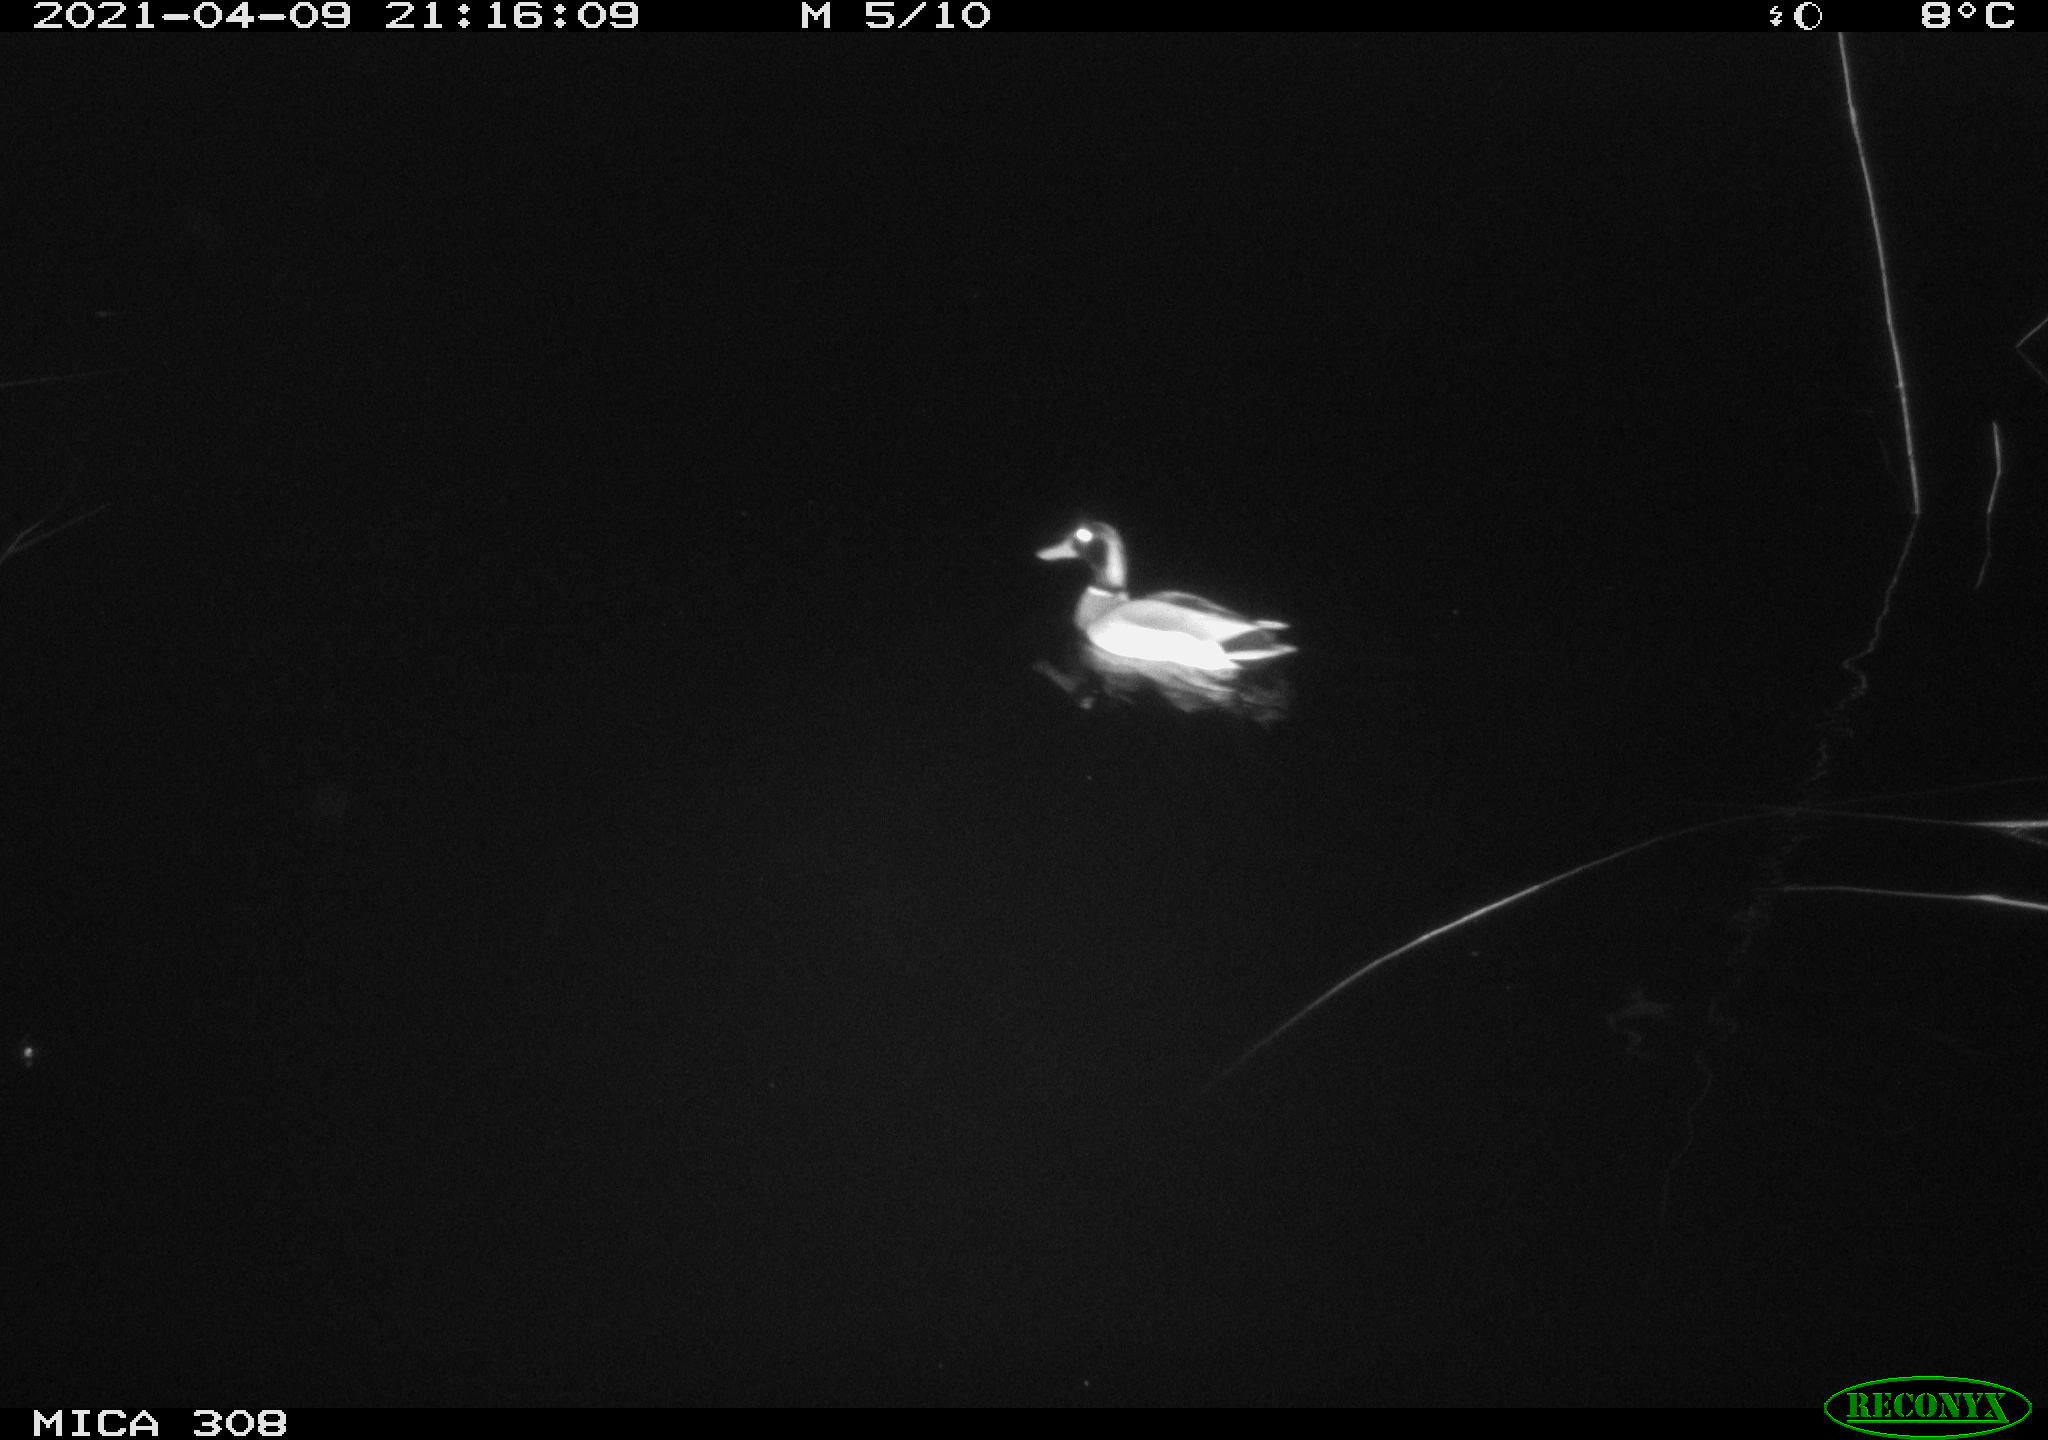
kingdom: Animalia
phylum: Chordata
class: Aves
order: Anseriformes
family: Anatidae
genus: Anas
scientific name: Anas platyrhynchos
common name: Mallard
